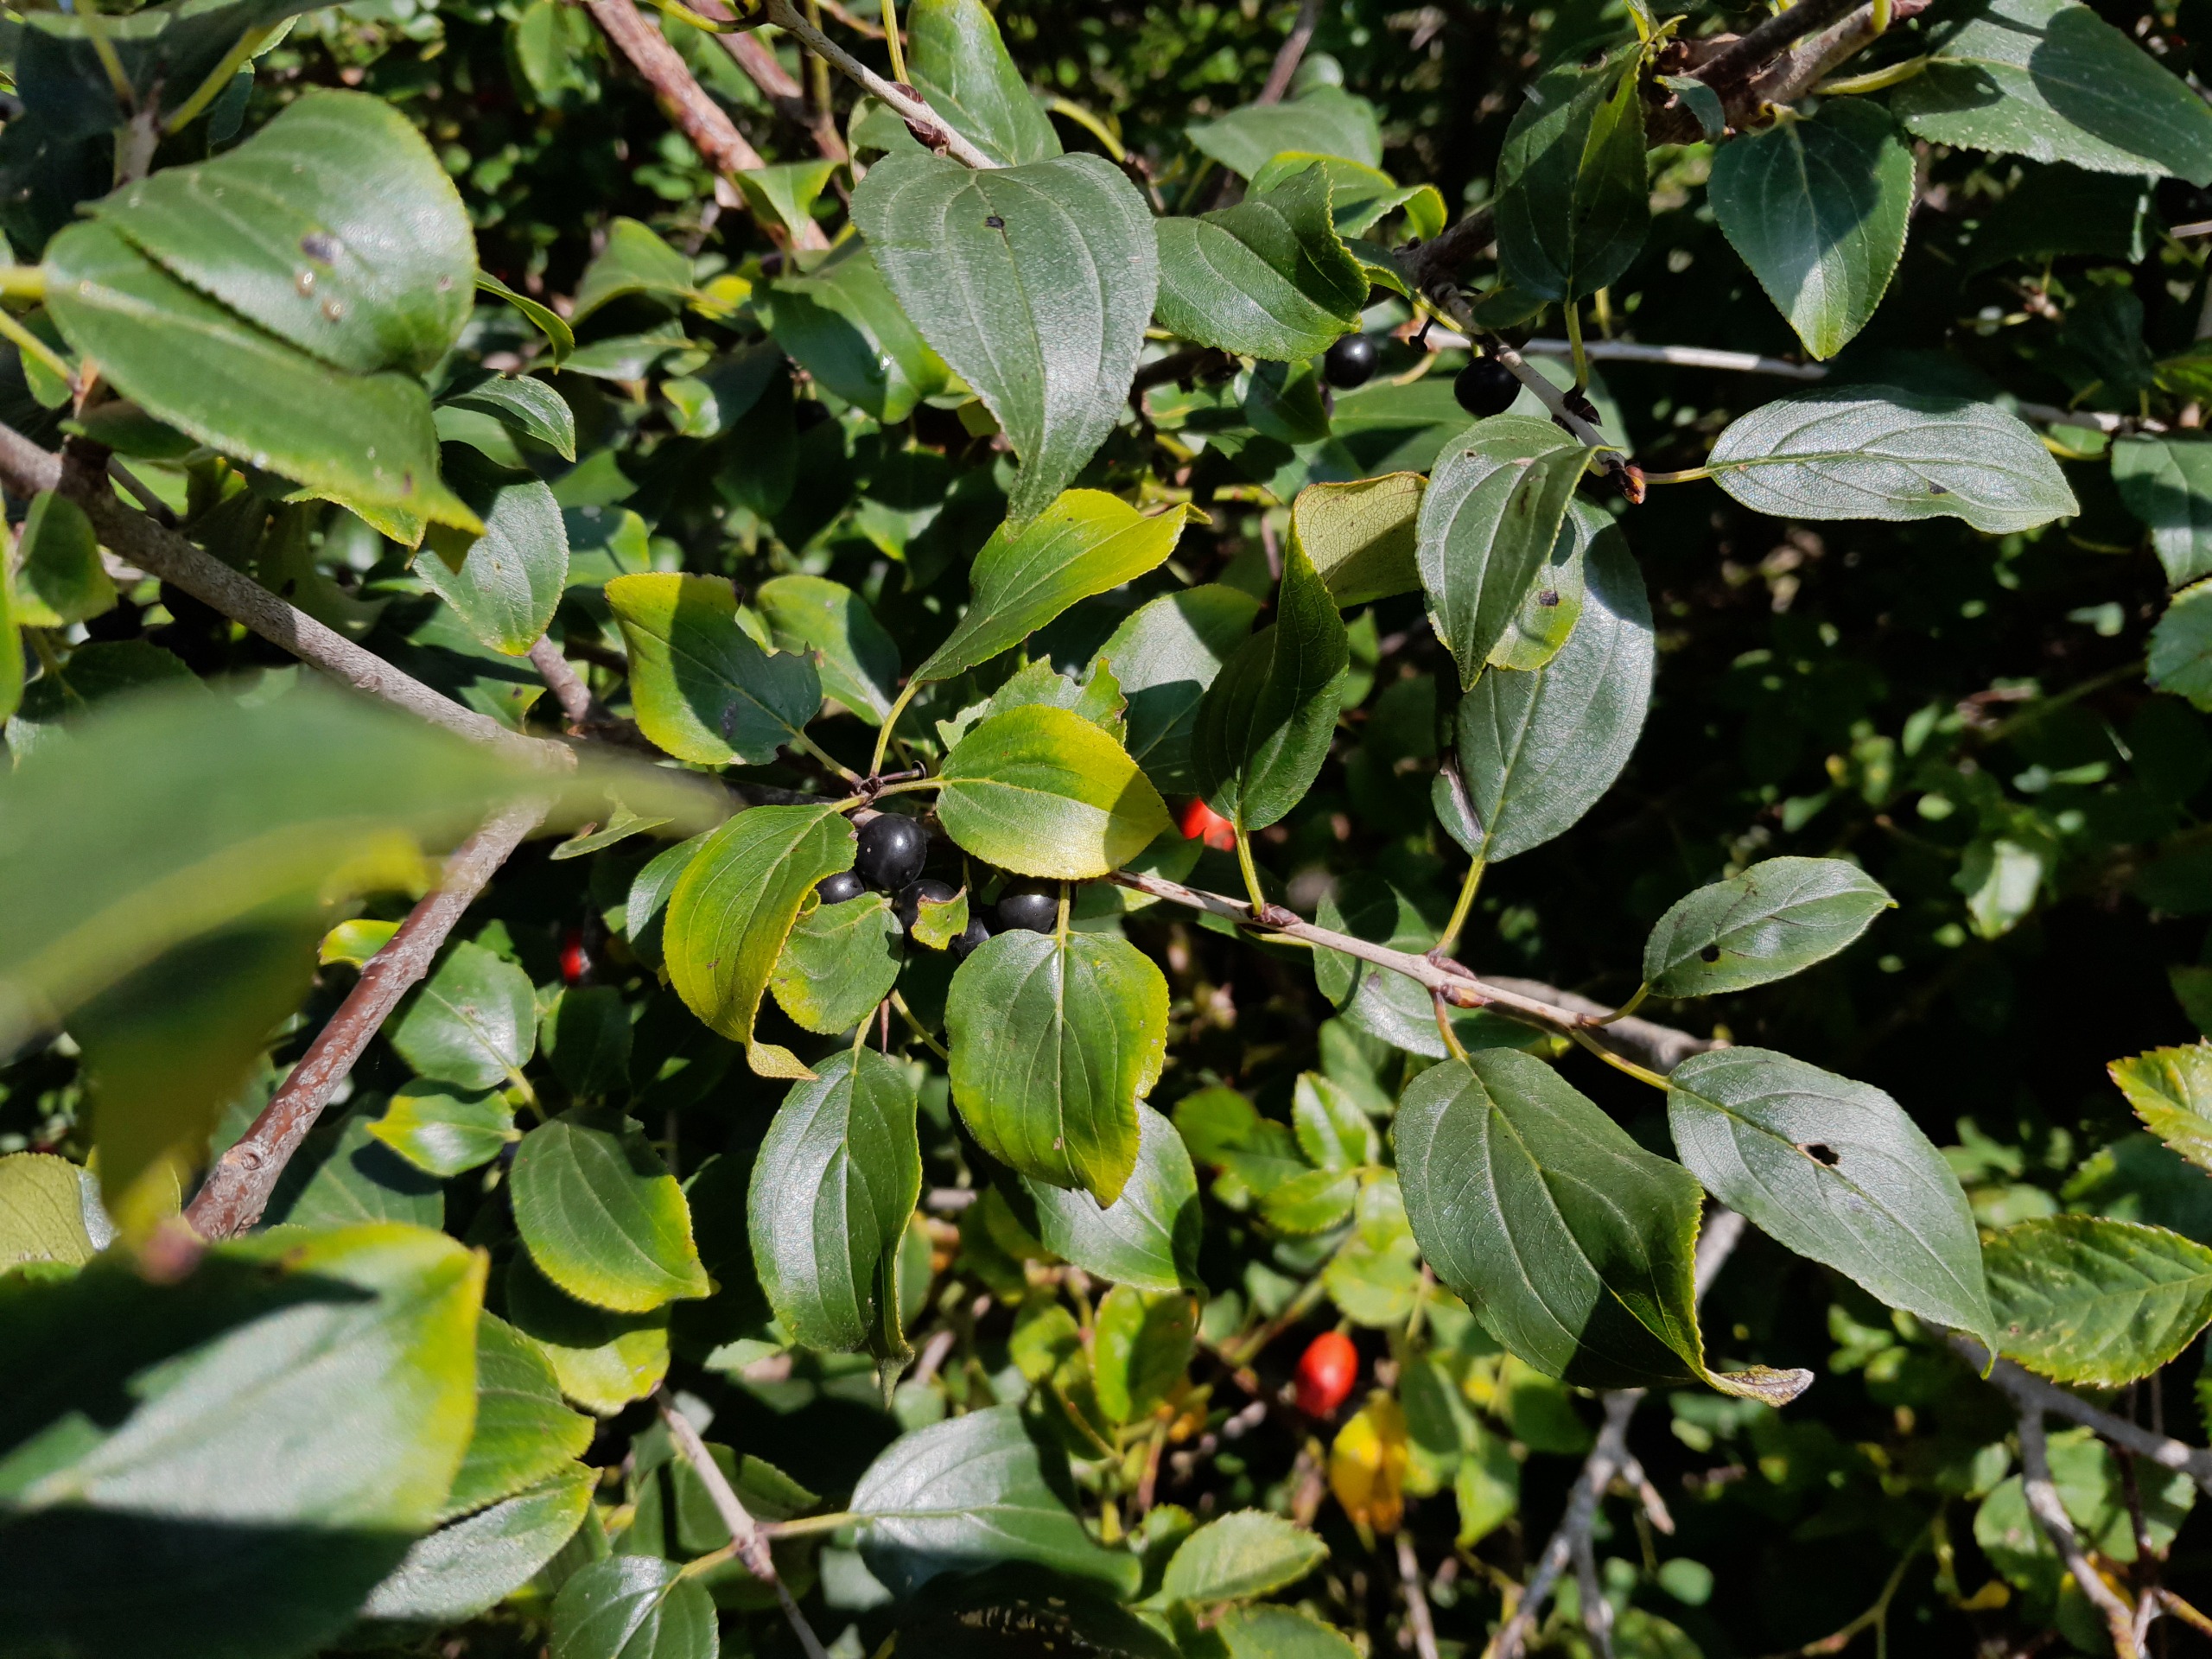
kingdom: Plantae
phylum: Tracheophyta
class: Magnoliopsida
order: Rosales
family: Rhamnaceae
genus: Rhamnus
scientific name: Rhamnus cathartica
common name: Vrietorn
